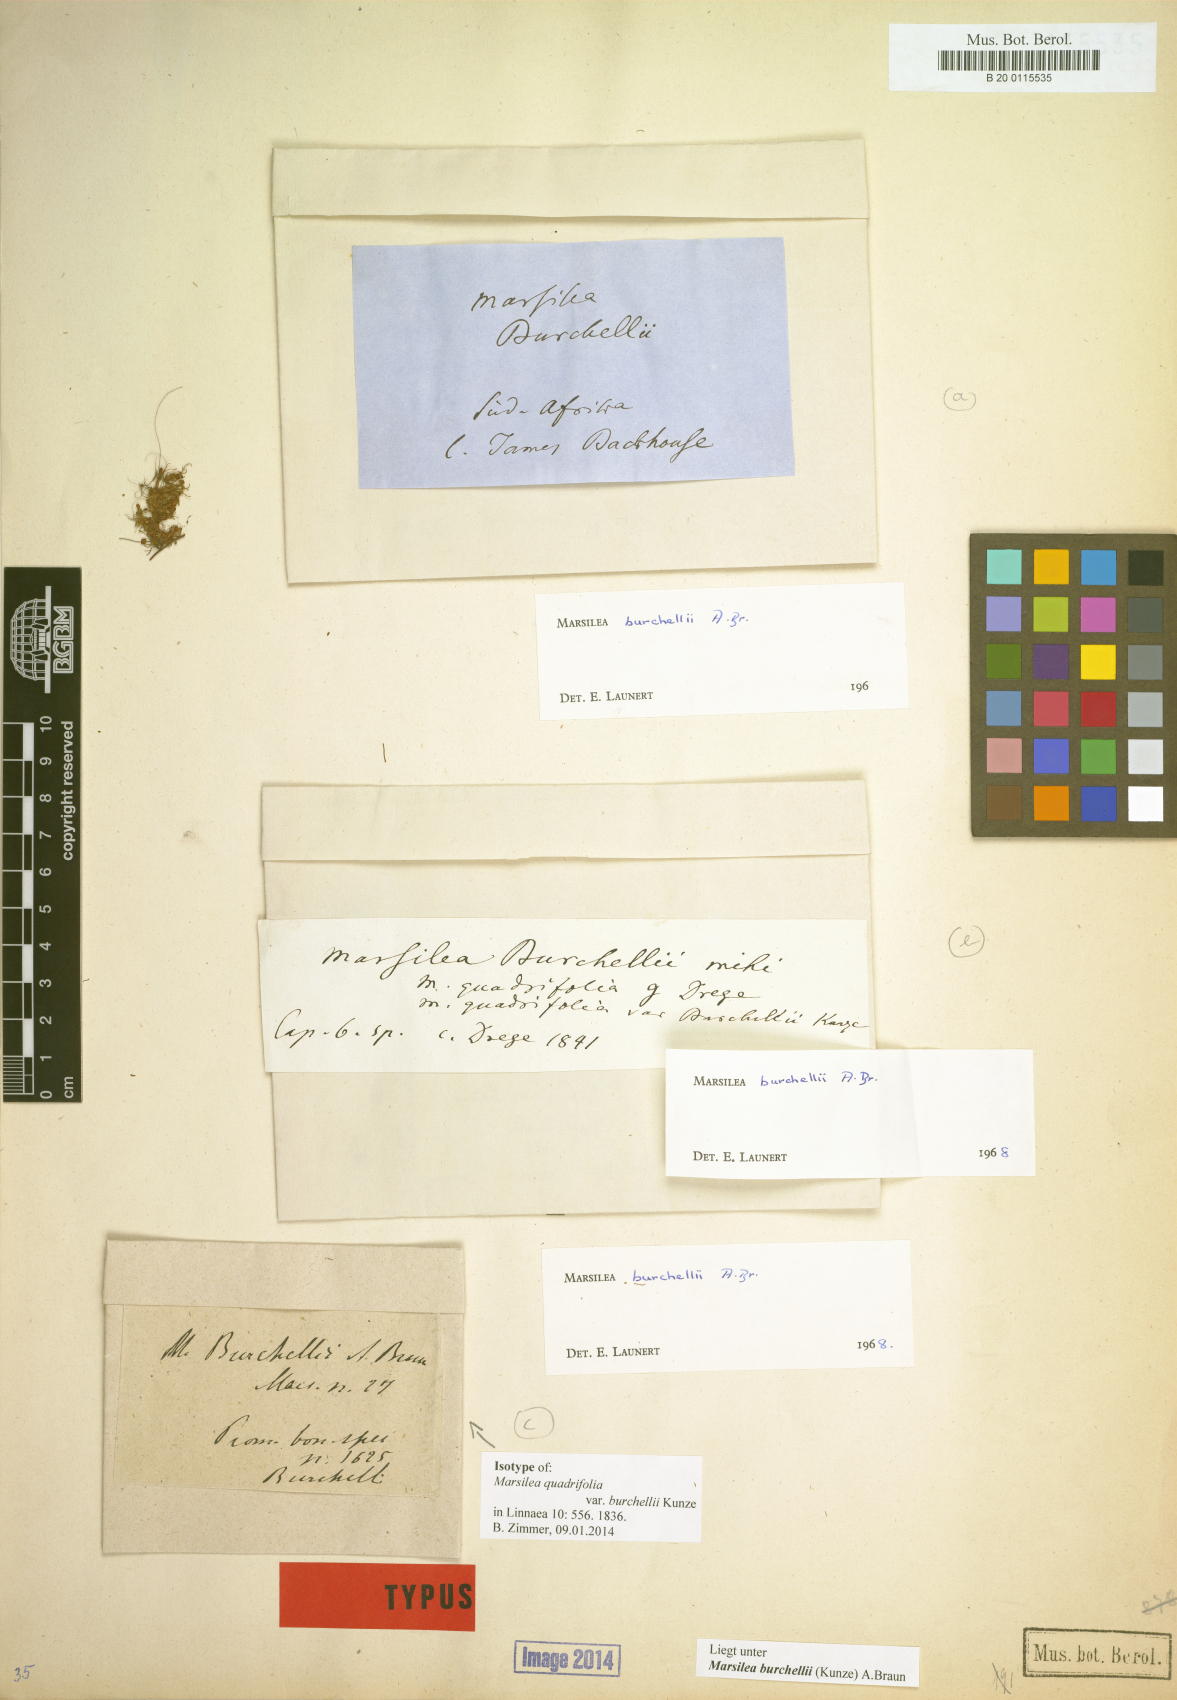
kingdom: Plantae
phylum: Tracheophyta
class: Polypodiopsida
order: Salviniales
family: Marsileaceae
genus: Marsilea
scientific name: Marsilea burchellii
